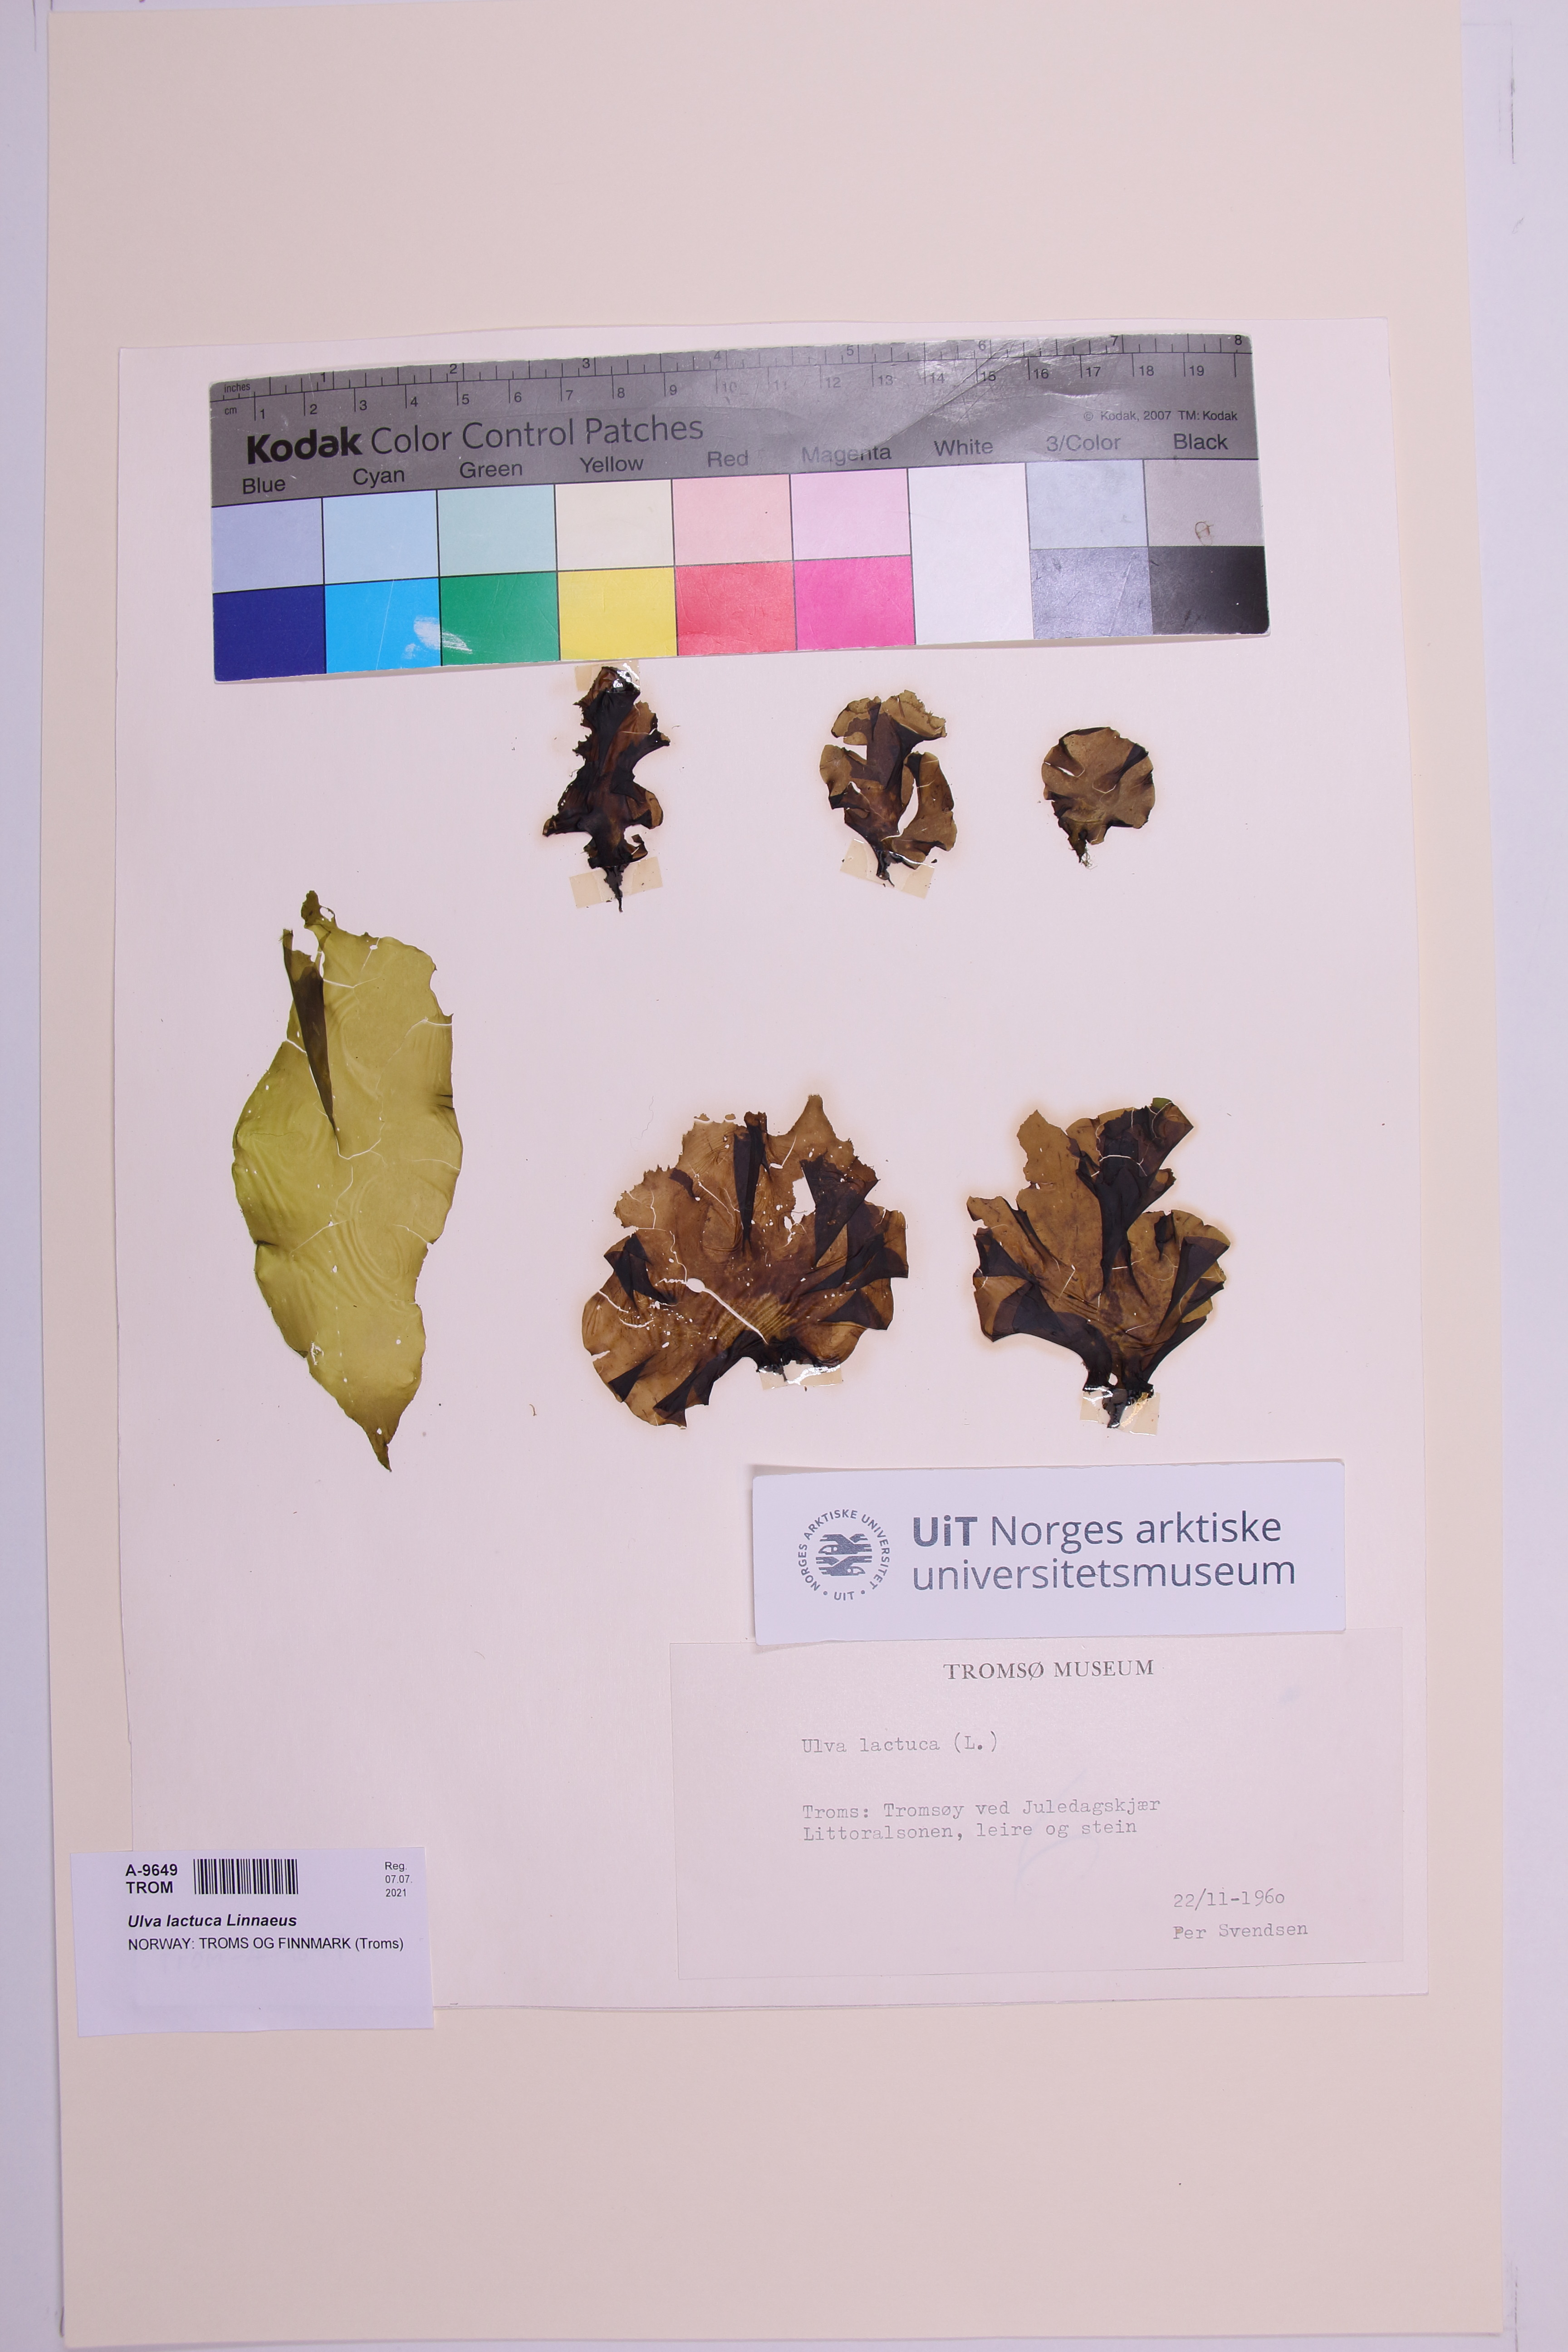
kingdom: Plantae
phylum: Chlorophyta
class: Ulvophyceae
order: Ulvales
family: Ulvaceae
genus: Ulva
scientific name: Ulva lactuca
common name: Sea lettuce
